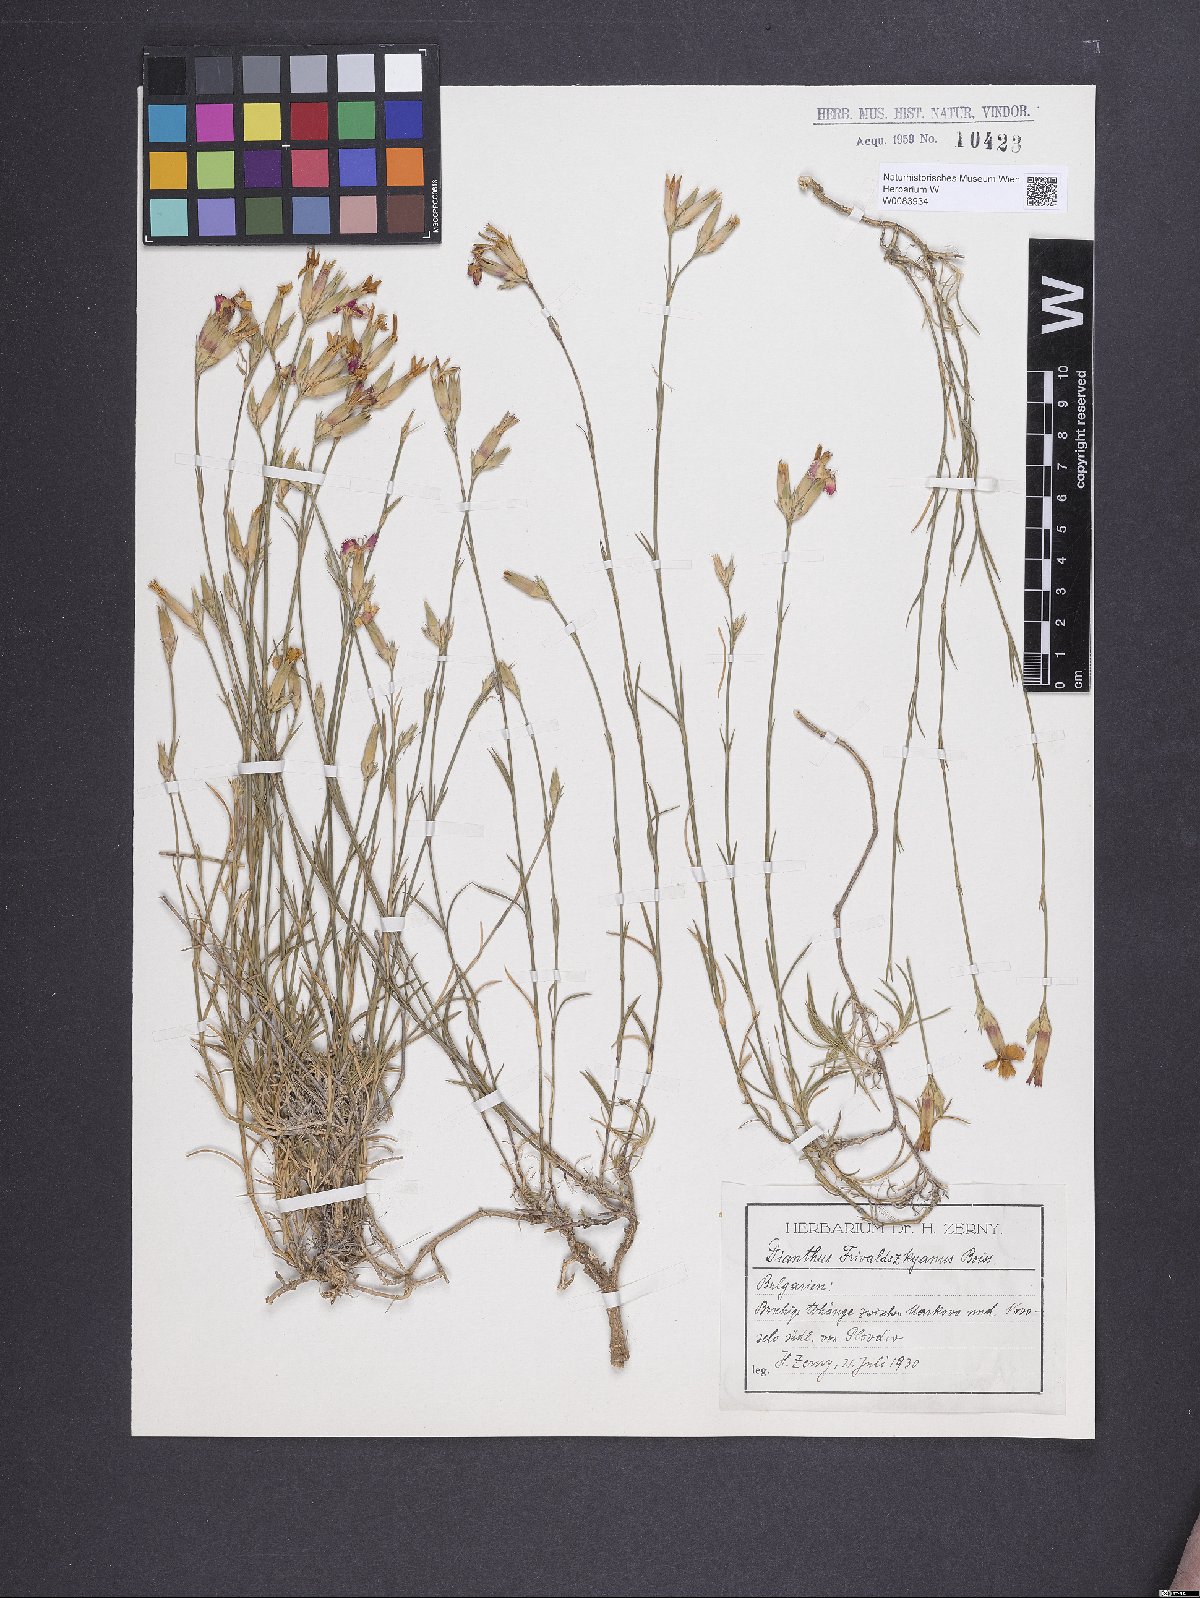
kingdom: Plantae
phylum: Tracheophyta
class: Magnoliopsida
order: Caryophyllales
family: Caryophyllaceae
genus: Dianthus
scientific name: Dianthus gracilis
